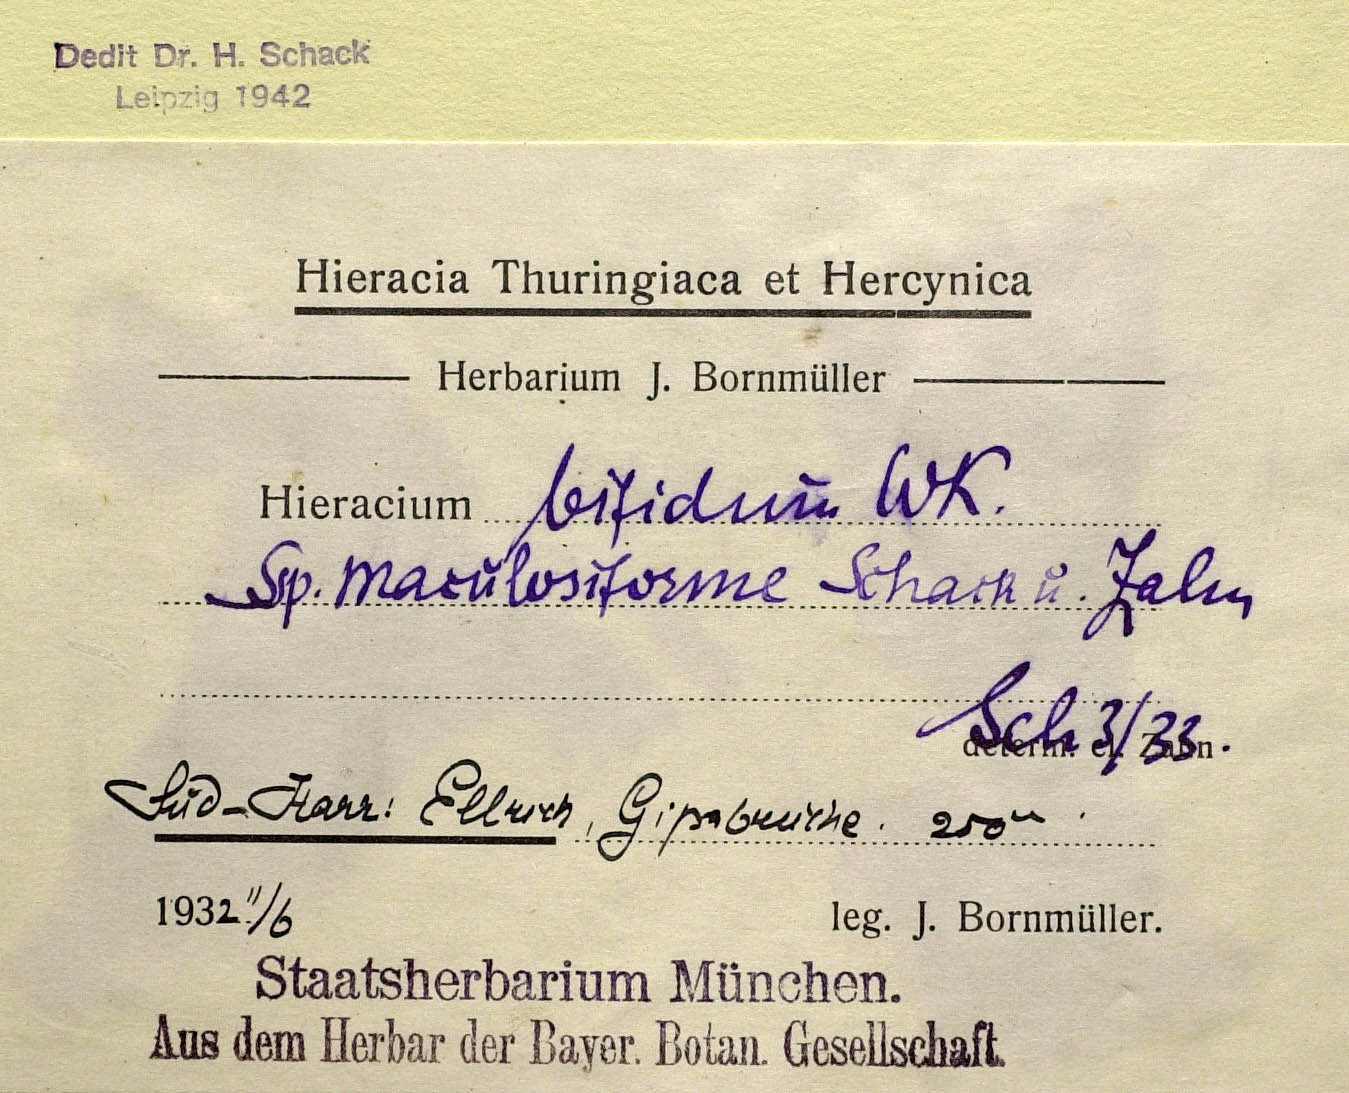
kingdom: Plantae
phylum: Tracheophyta
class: Magnoliopsida
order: Asterales
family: Asteraceae
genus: Hieracium
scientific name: Hieracium bifidum
